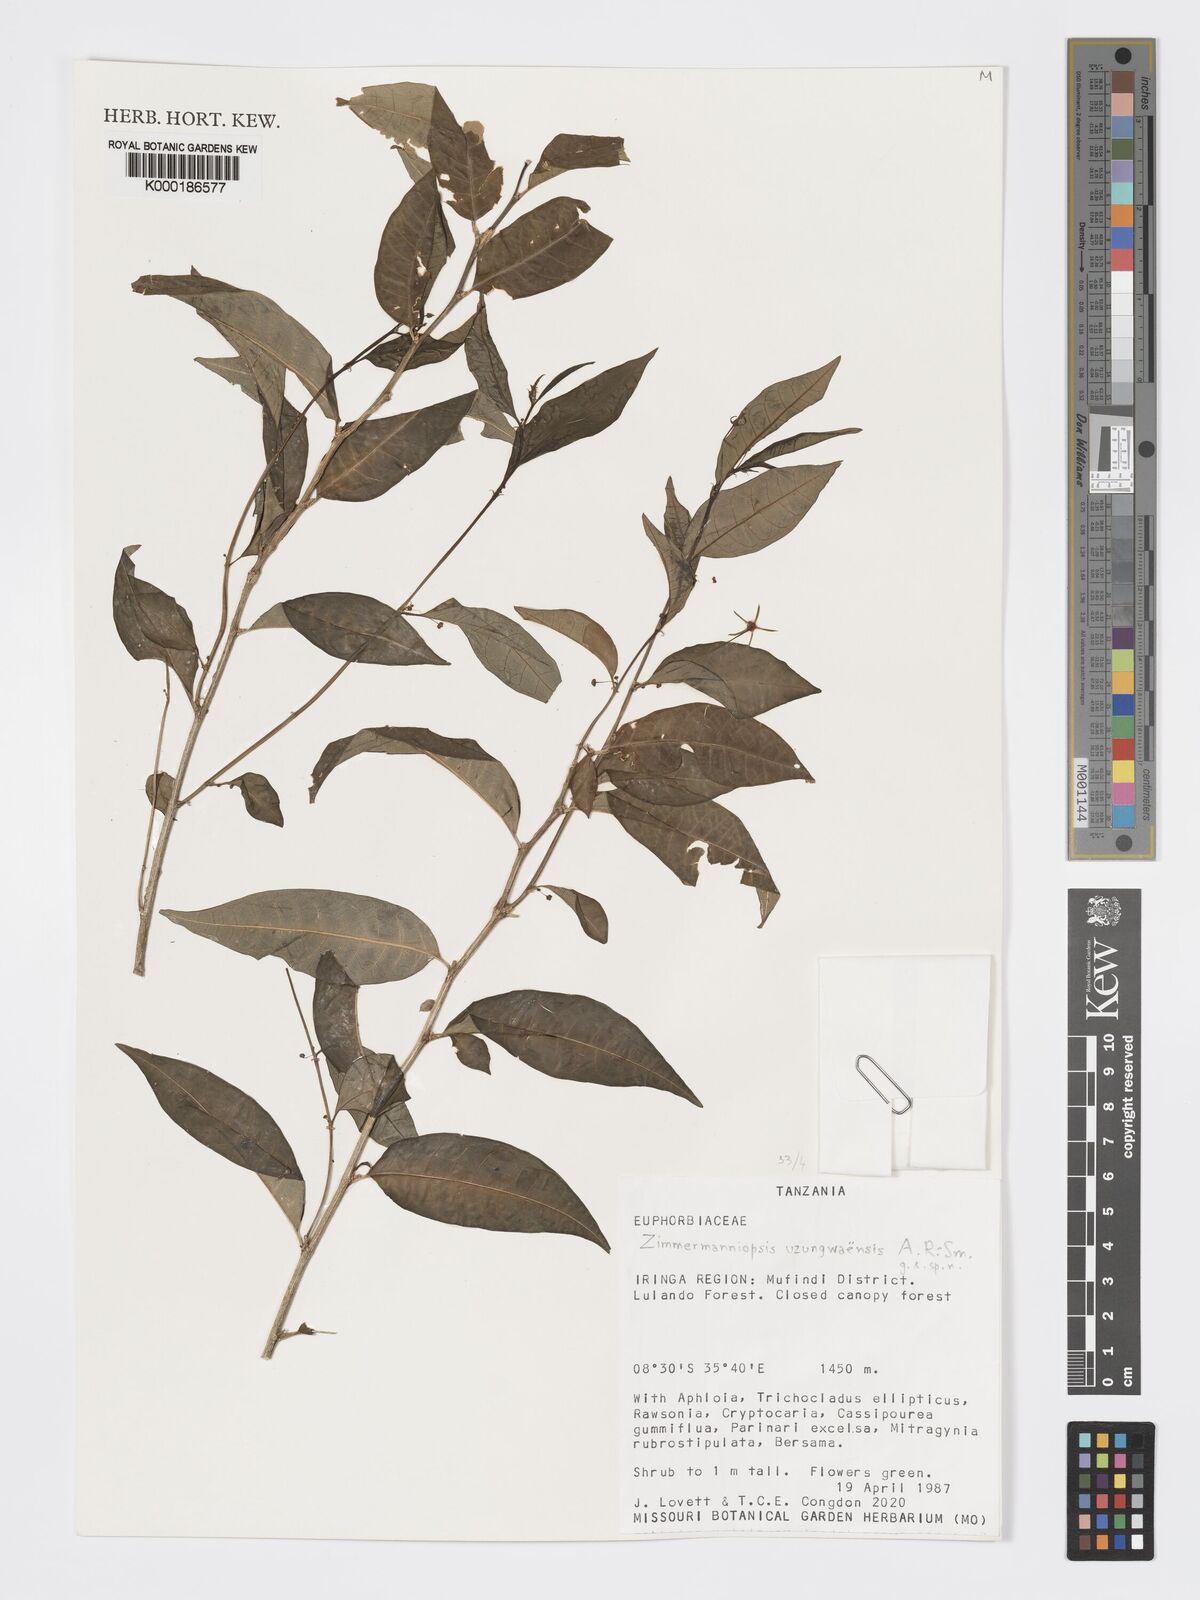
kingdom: Plantae
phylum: Tracheophyta
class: Magnoliopsida
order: Malpighiales
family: Phyllanthaceae
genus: Meineckia
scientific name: Meineckia uzungwaensis
